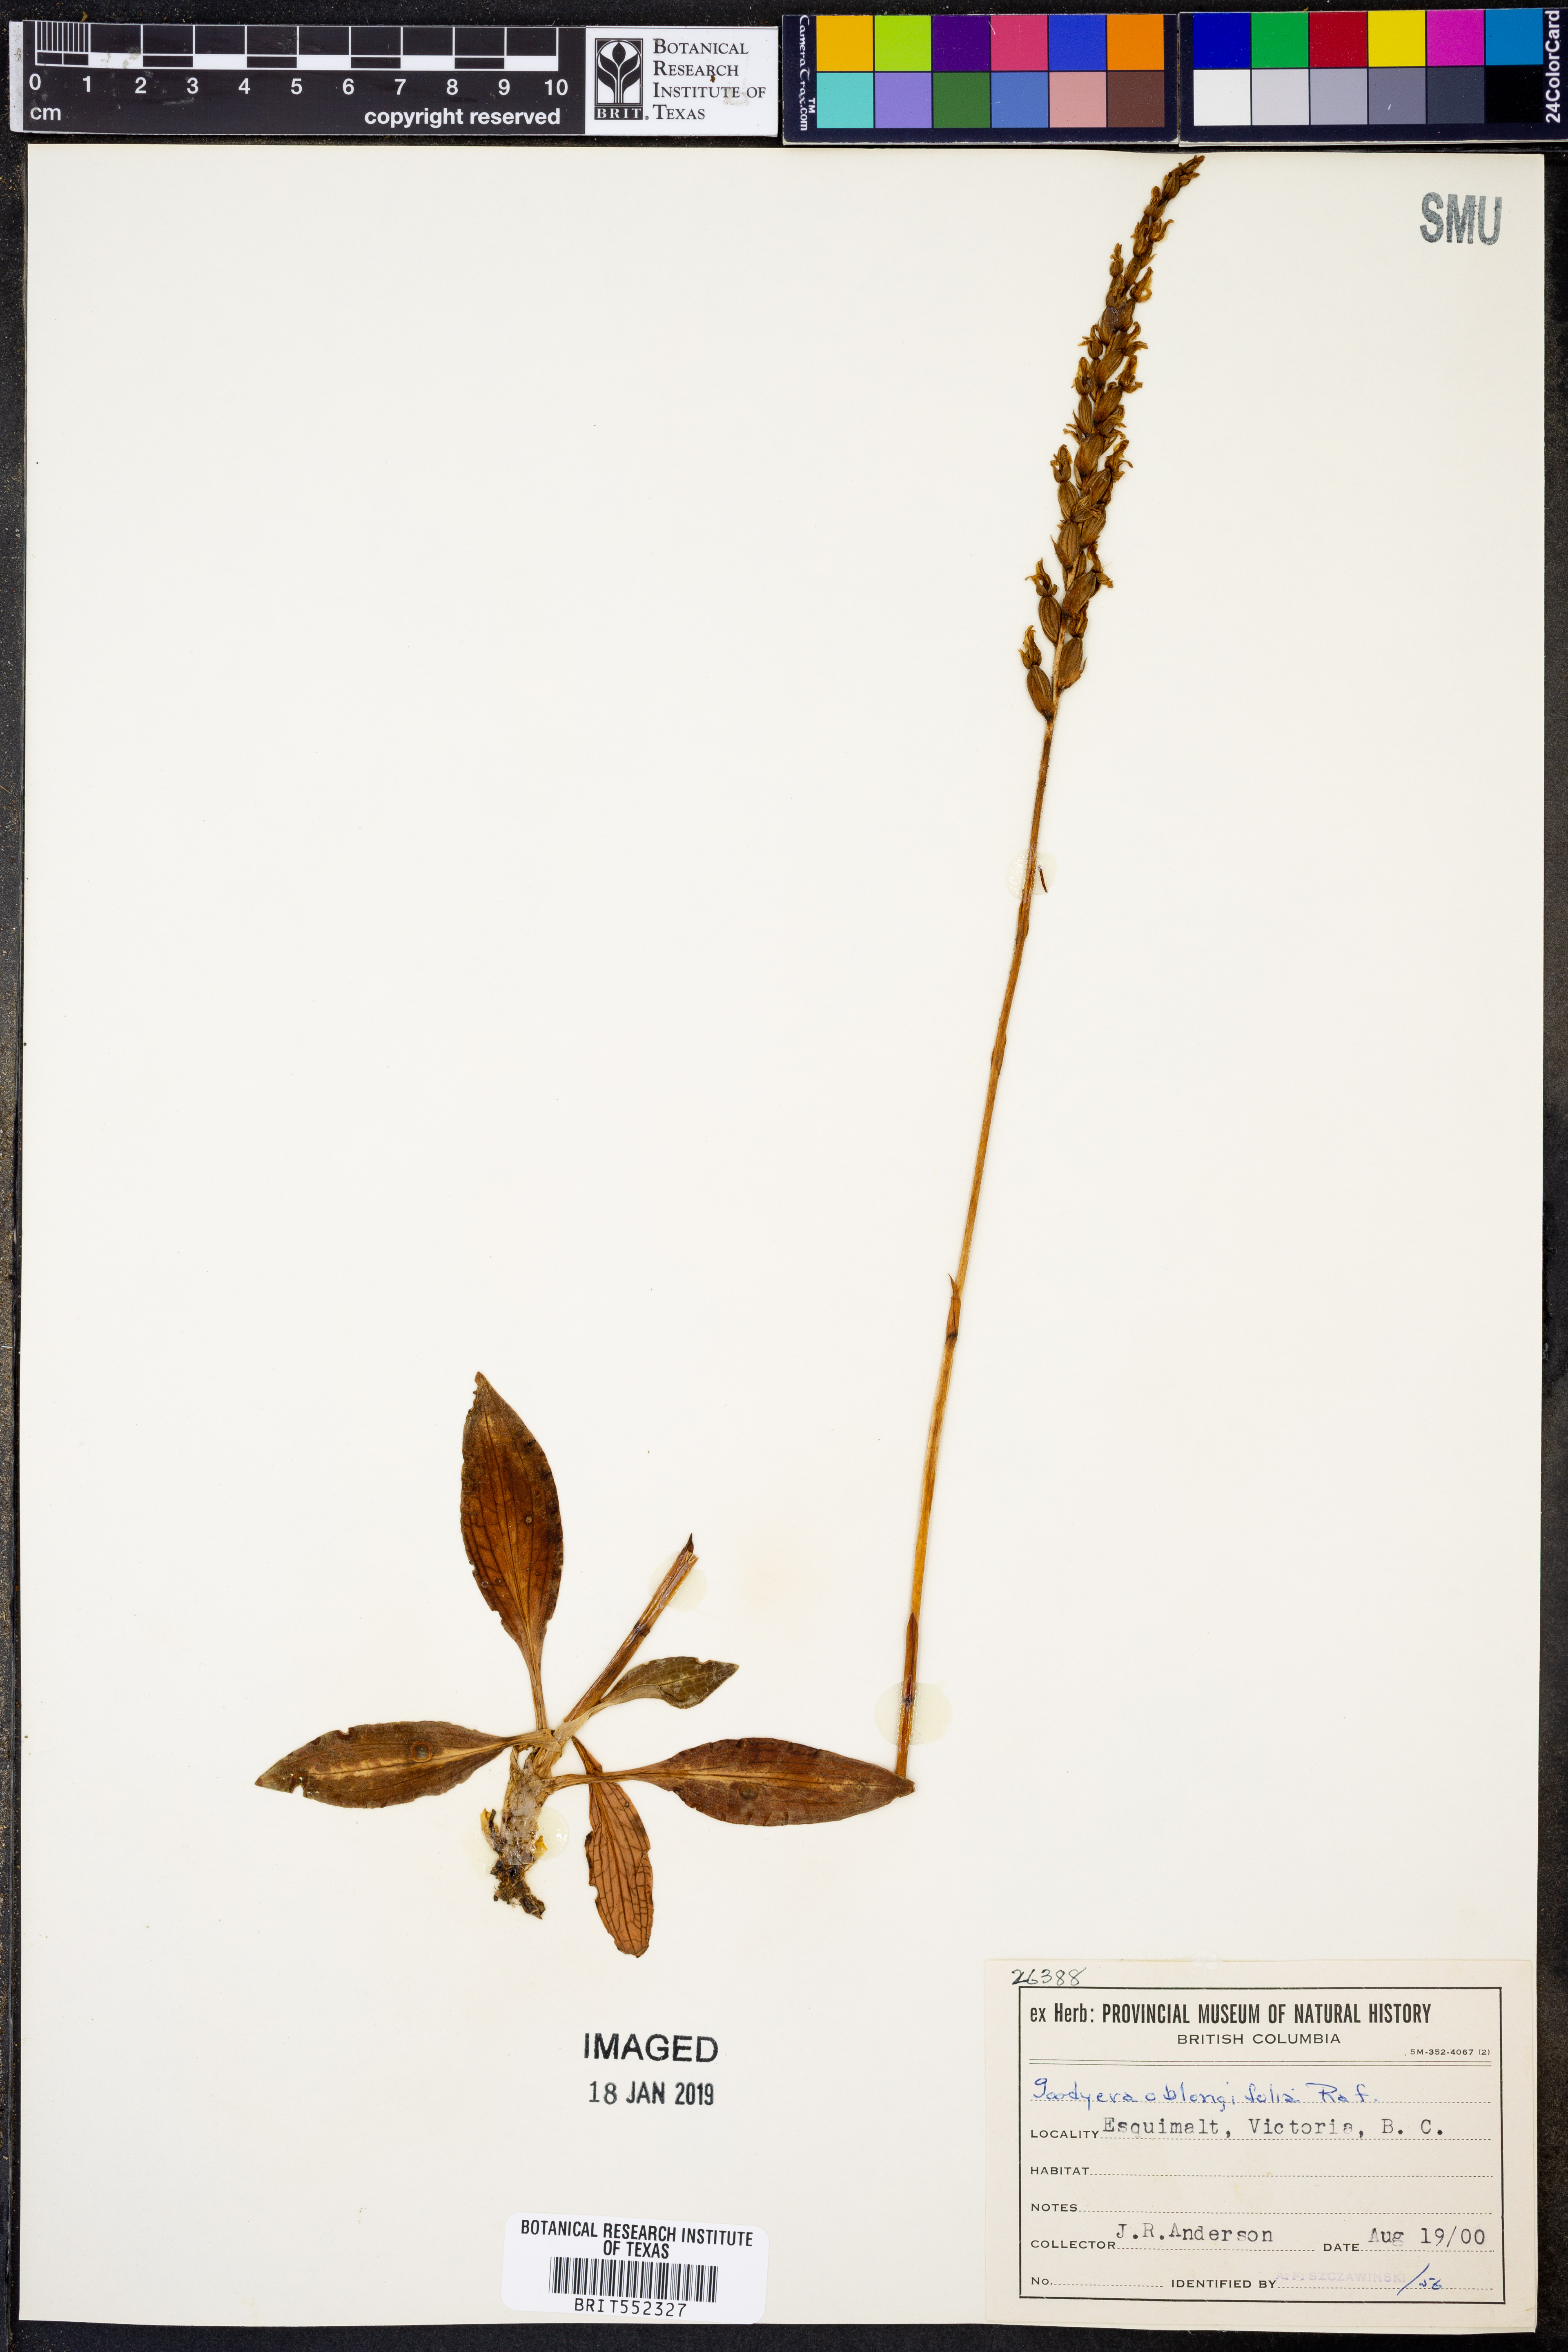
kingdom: Plantae
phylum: Tracheophyta
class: Liliopsida
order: Asparagales
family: Orchidaceae
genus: Goodyera
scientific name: Goodyera oblongifolia
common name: Giant rattlesnake-plantain
